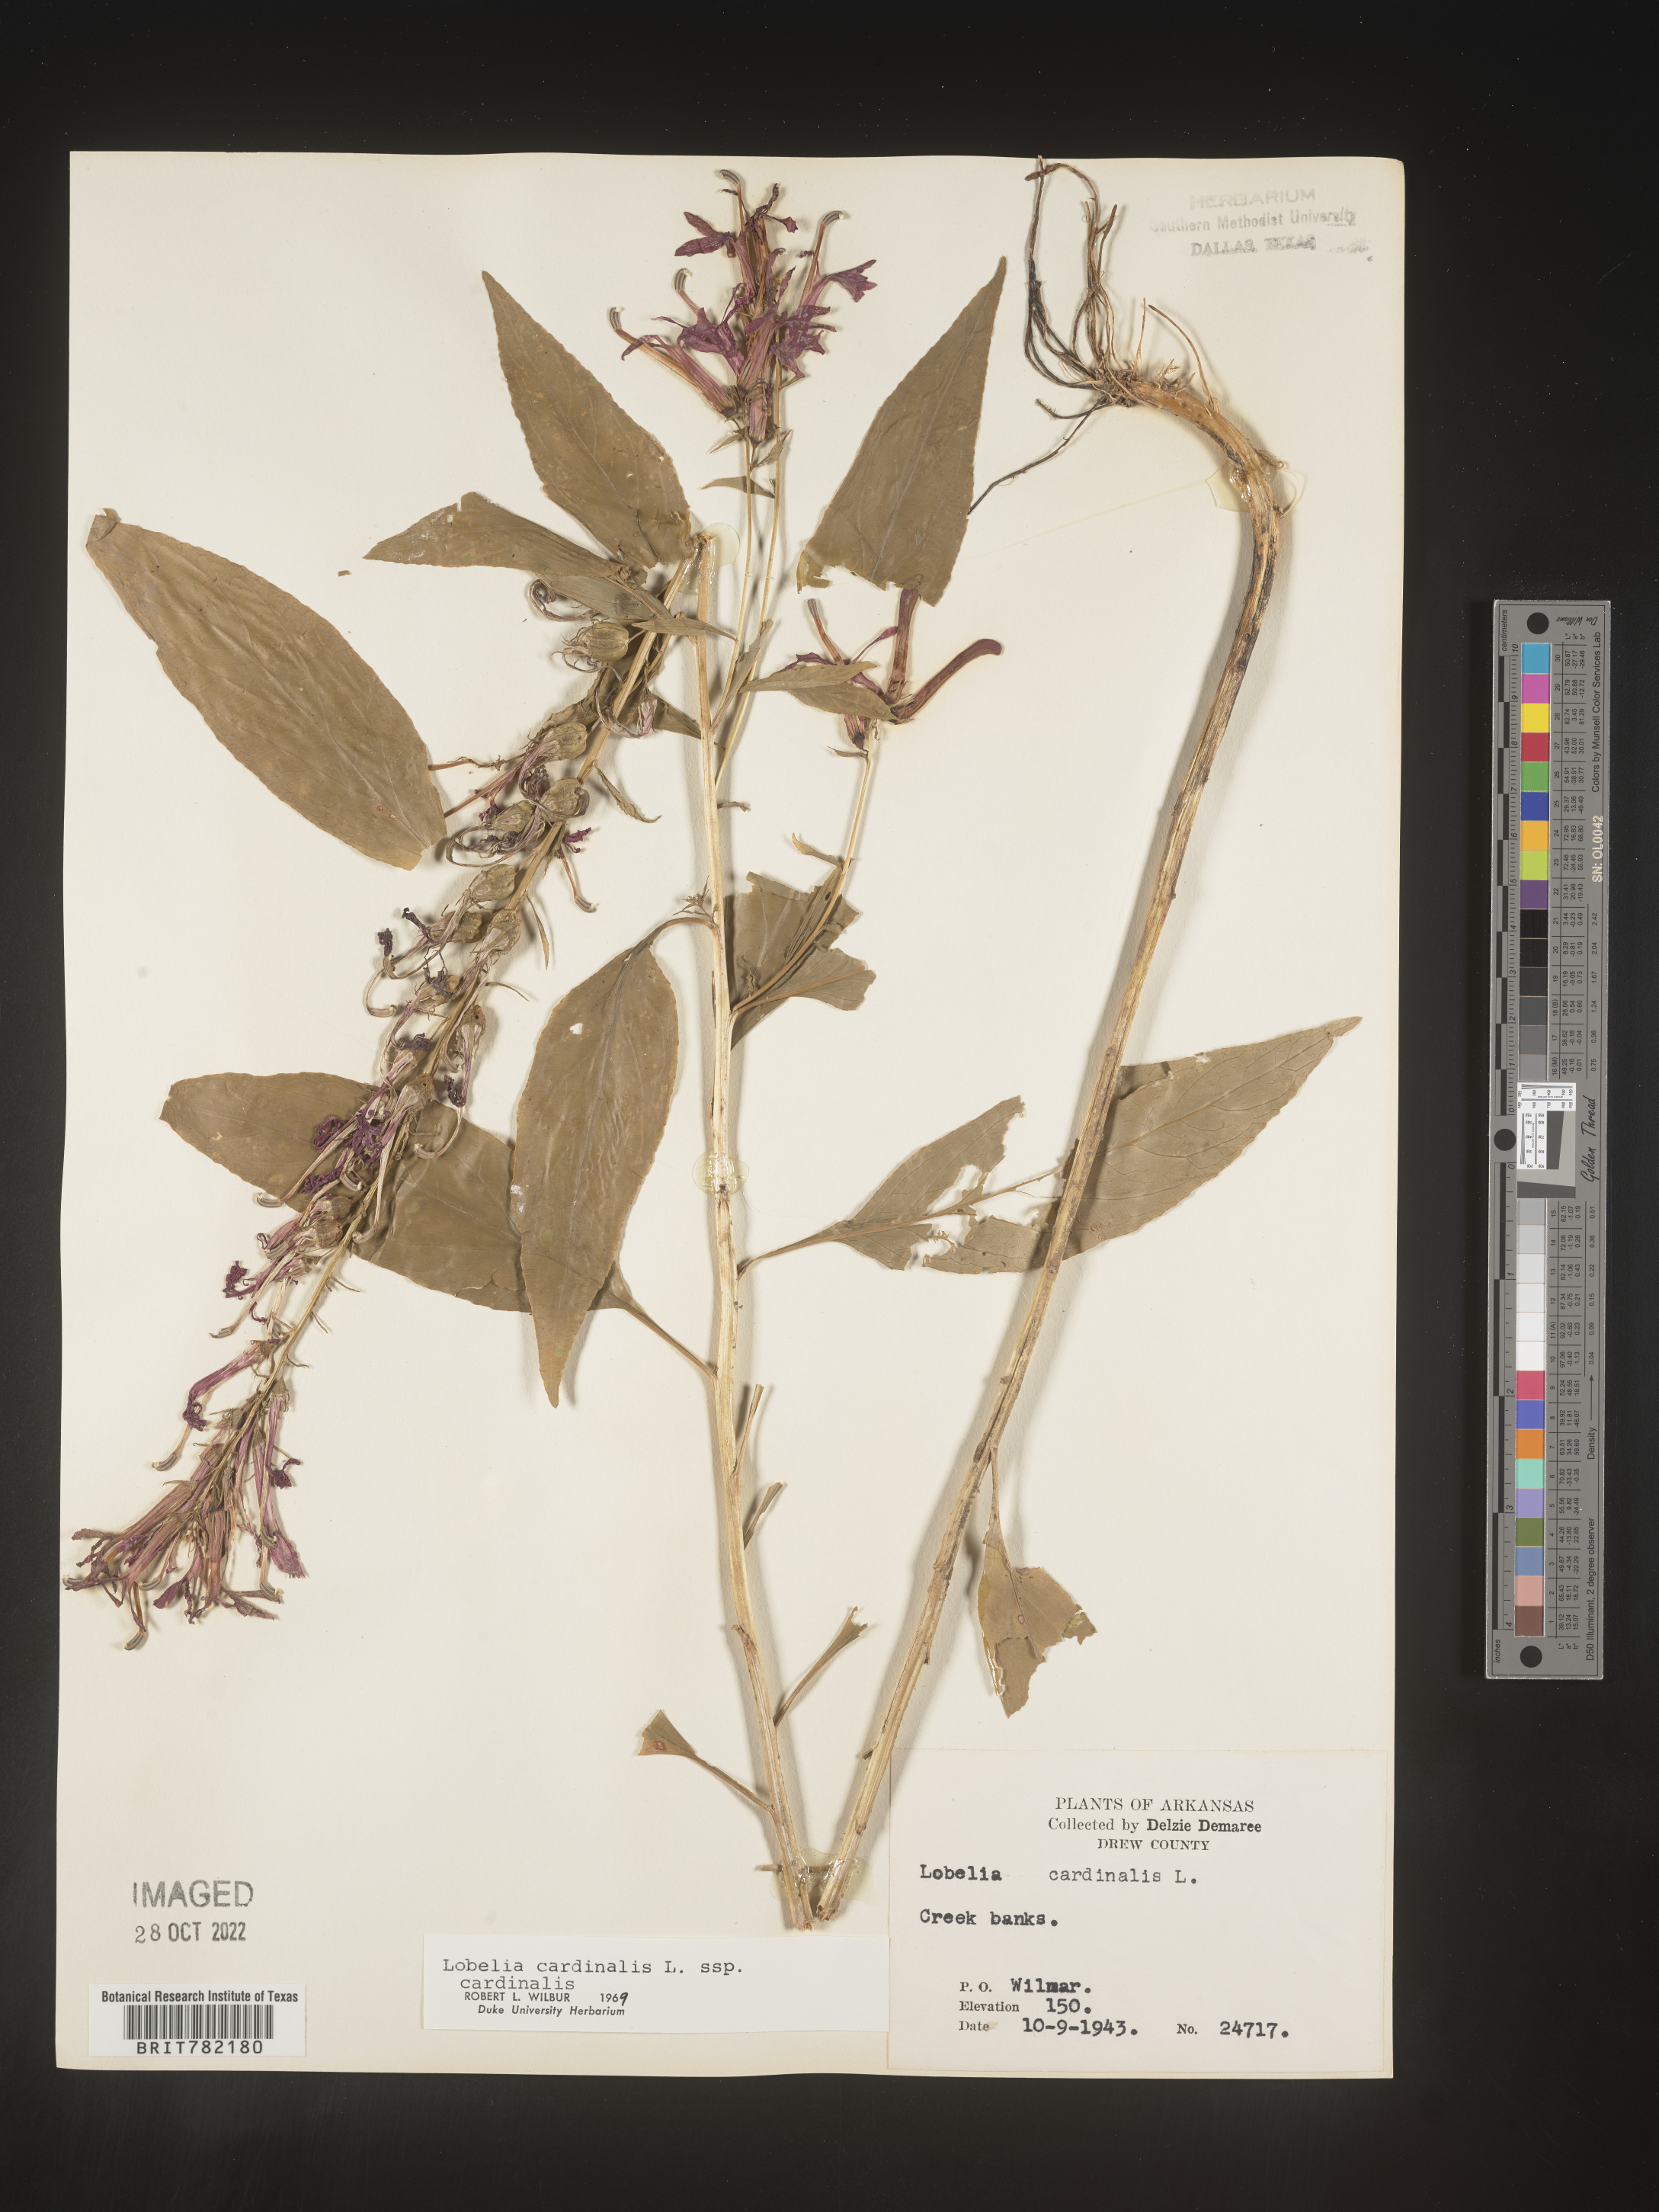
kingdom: Plantae
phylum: Tracheophyta
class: Magnoliopsida
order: Asterales
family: Campanulaceae
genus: Lobelia
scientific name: Lobelia cardinalis
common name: Cardinal flower
